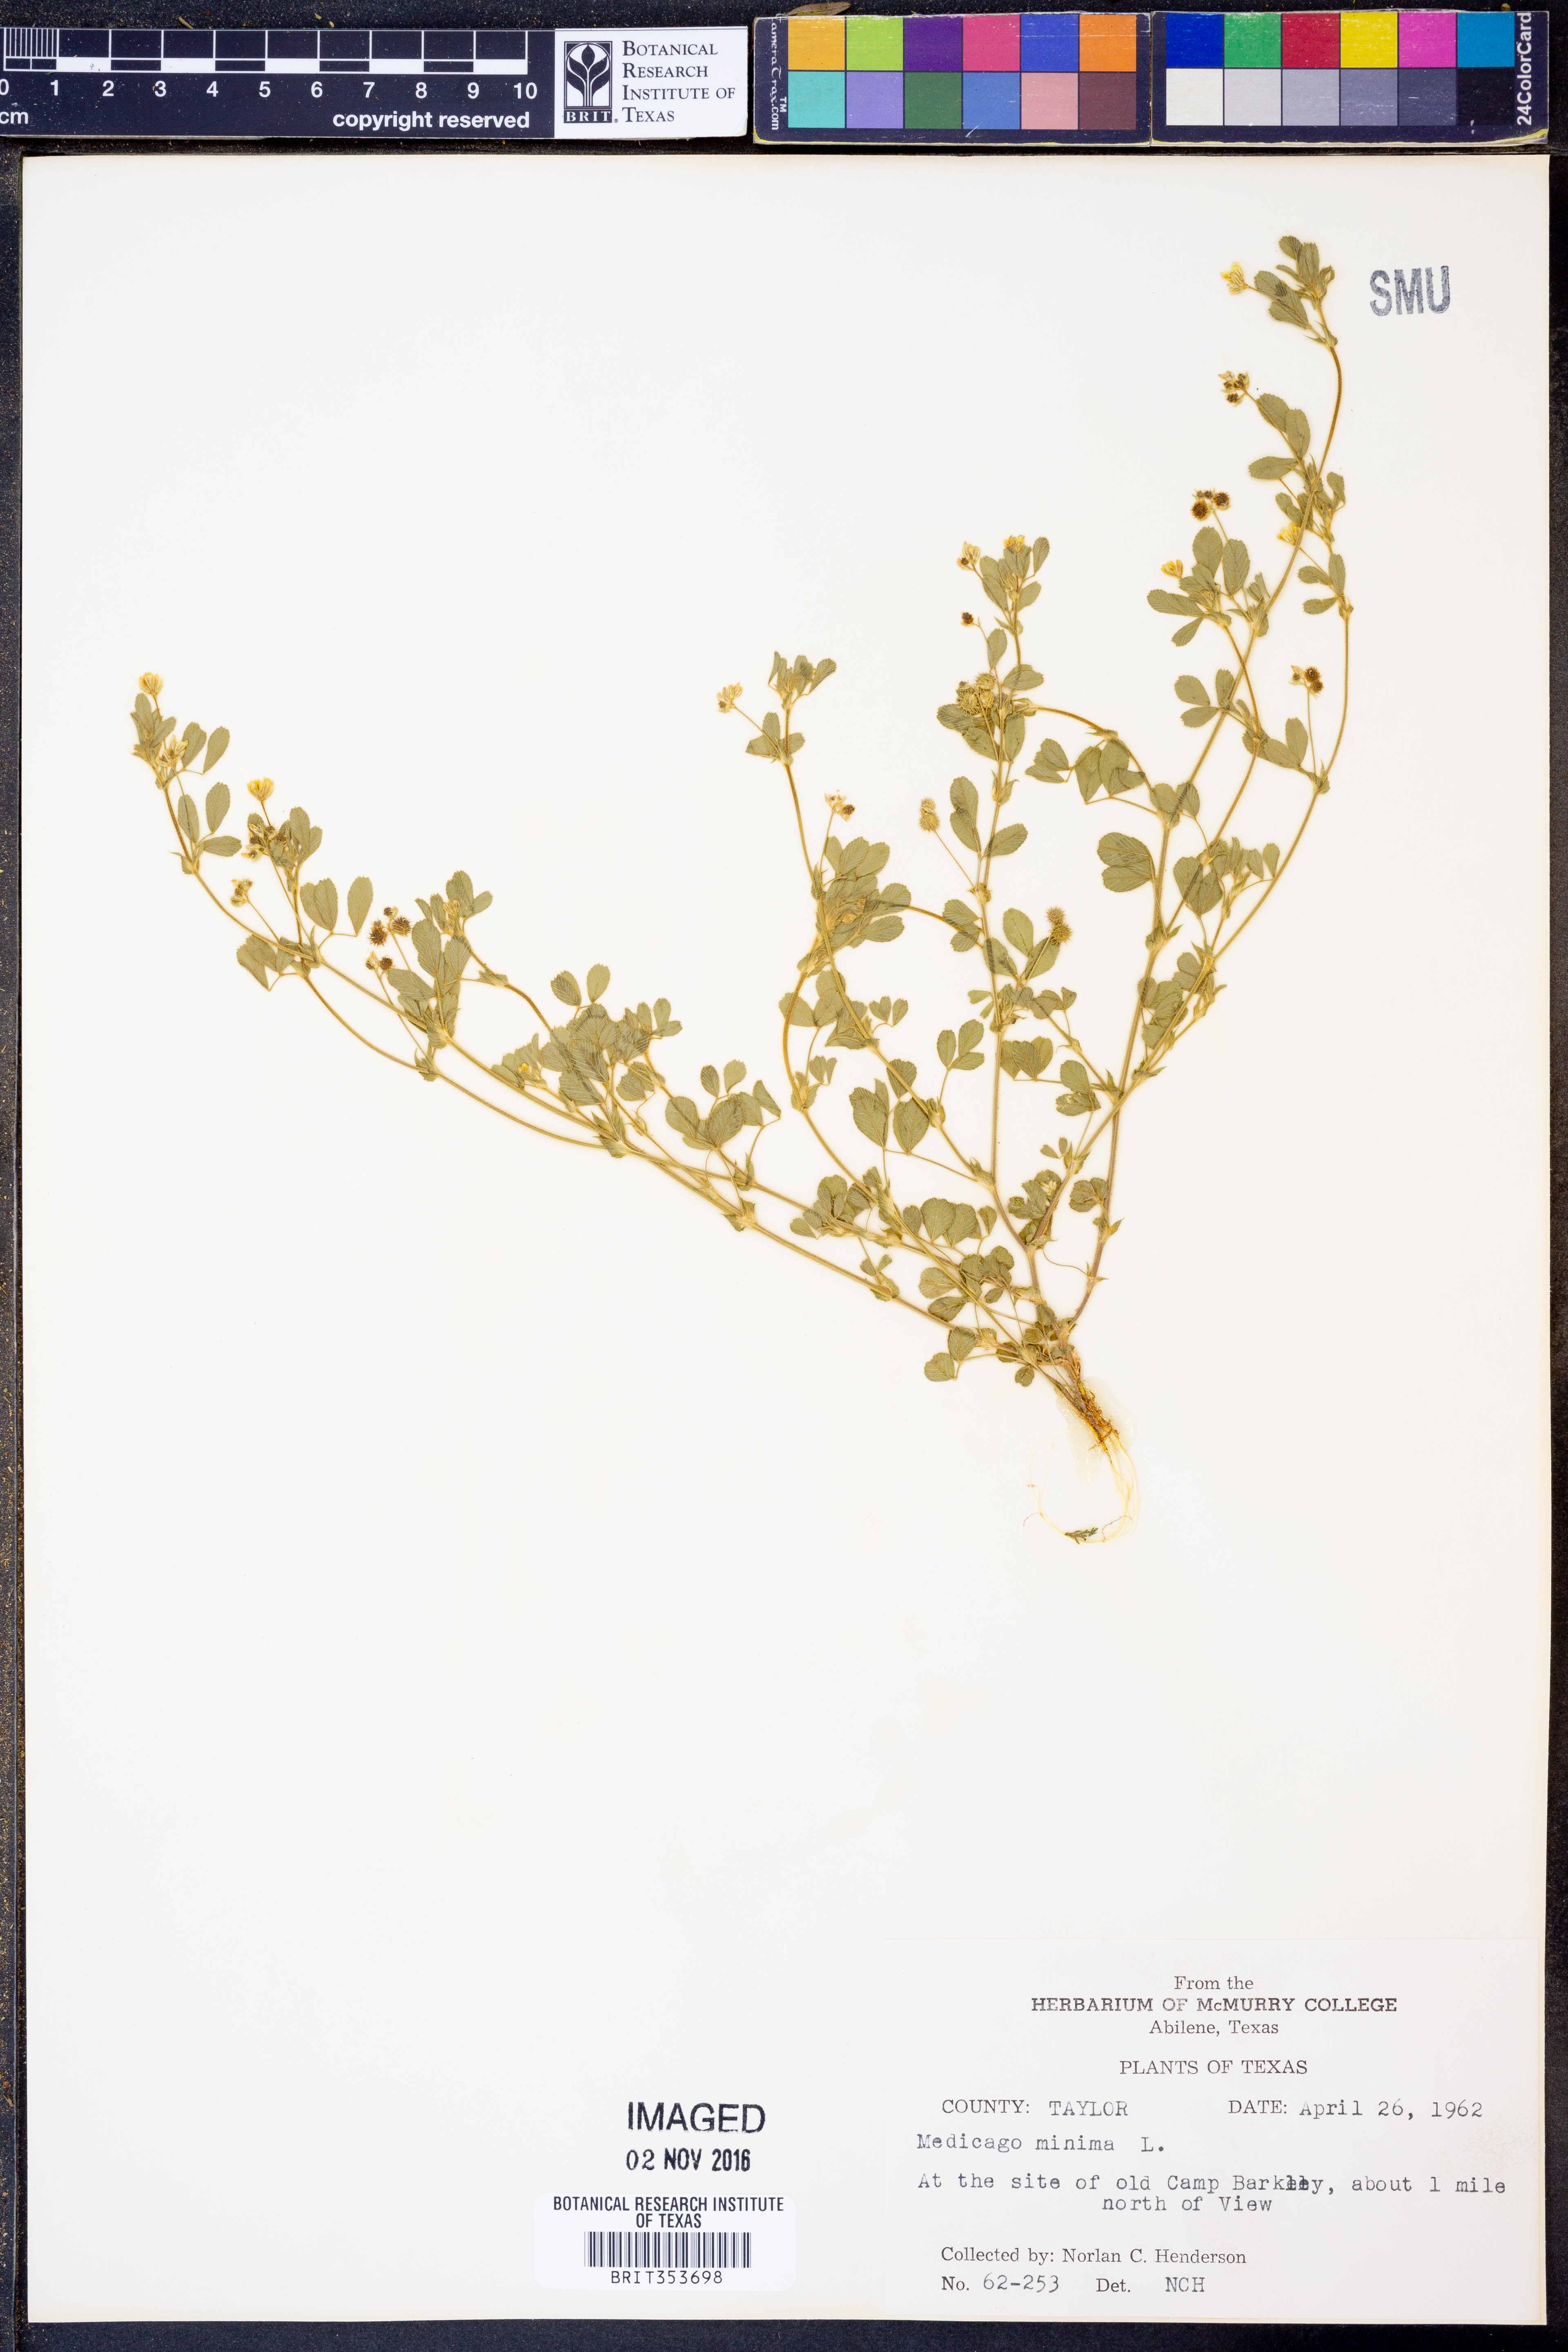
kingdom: Plantae
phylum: Tracheophyta
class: Magnoliopsida
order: Fabales
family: Fabaceae
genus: Medicago
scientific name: Medicago minima
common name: Little bur-clover
